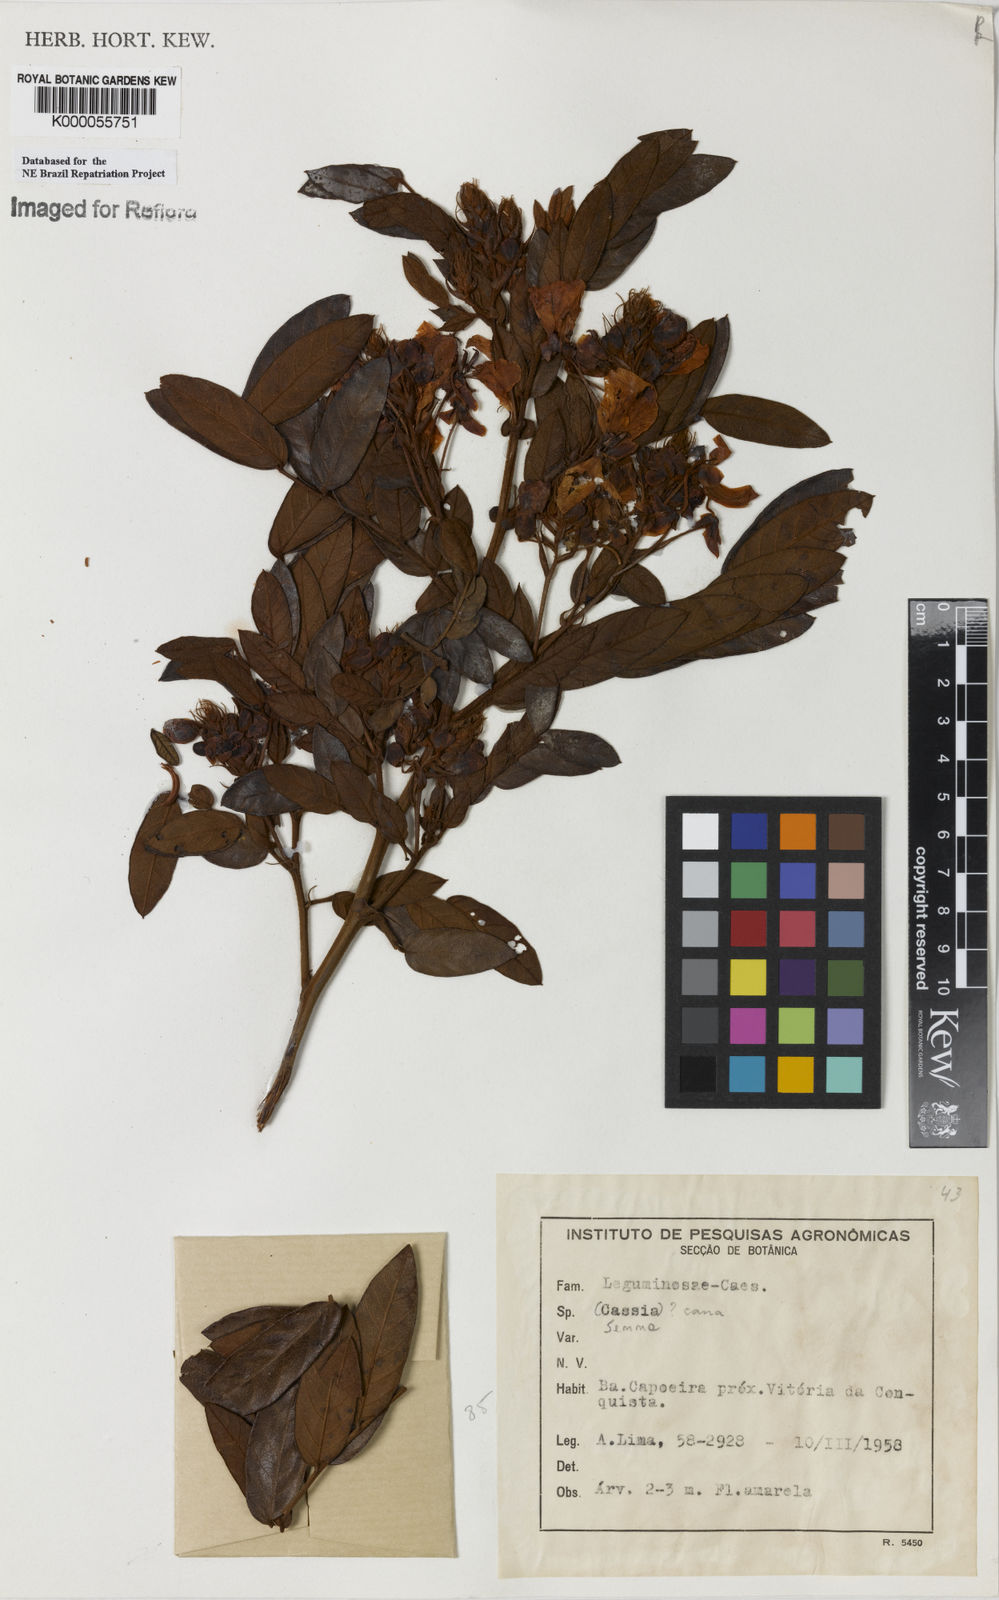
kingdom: Plantae
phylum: Tracheophyta
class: Magnoliopsida
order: Fabales
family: Fabaceae
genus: Senna
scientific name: Senna cana
